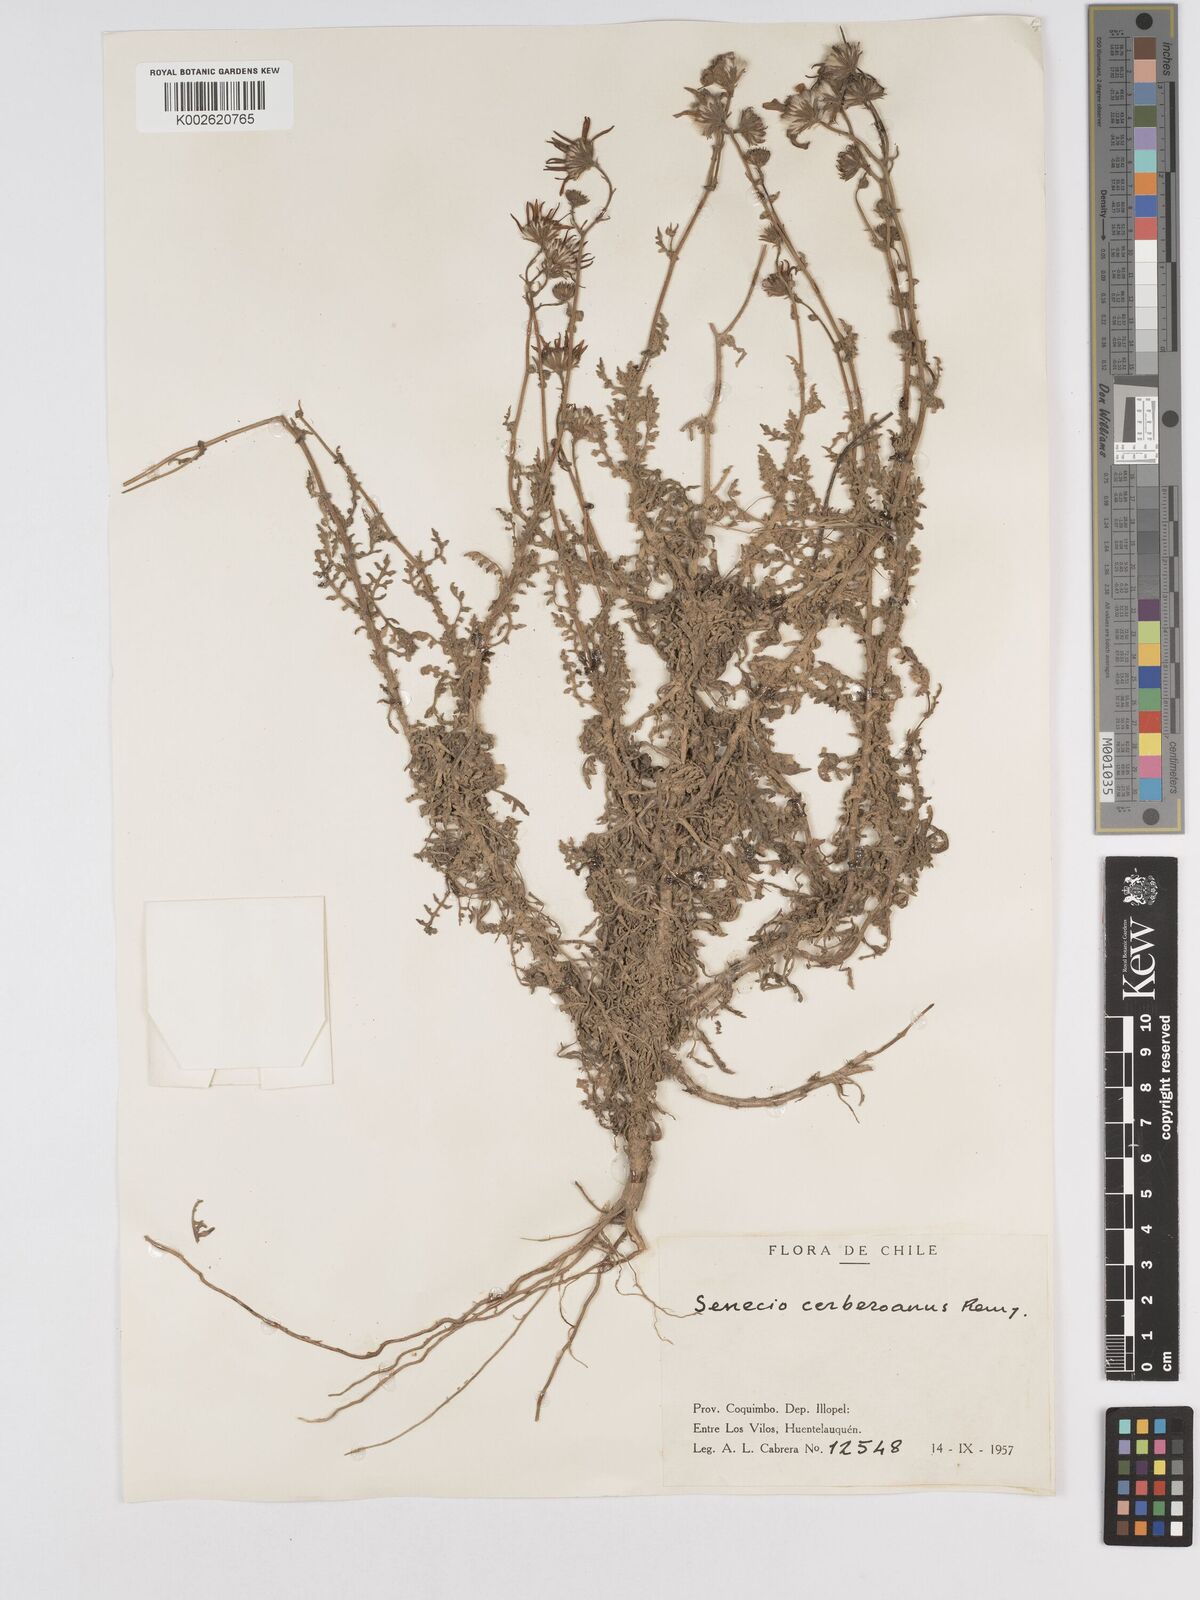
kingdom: Plantae
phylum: Tracheophyta
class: Magnoliopsida
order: Asterales
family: Asteraceae
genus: Senecio
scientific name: Senecio cerberoanus
